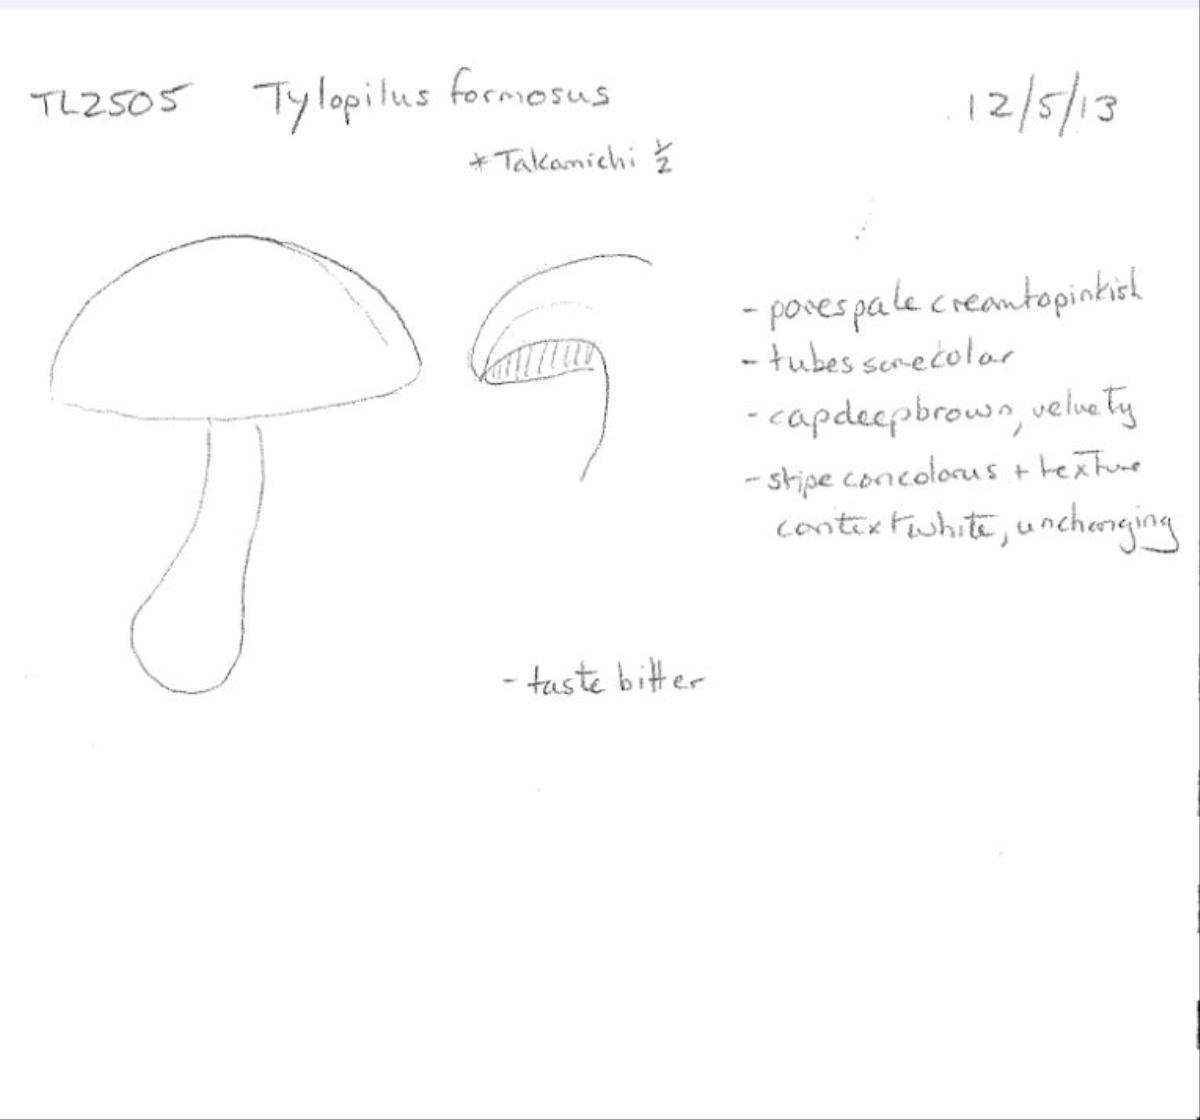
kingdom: Fungi
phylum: Basidiomycota
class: Agaricomycetes
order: Boletales
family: Boletaceae
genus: Porphyrellus
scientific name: Porphyrellus formosus
